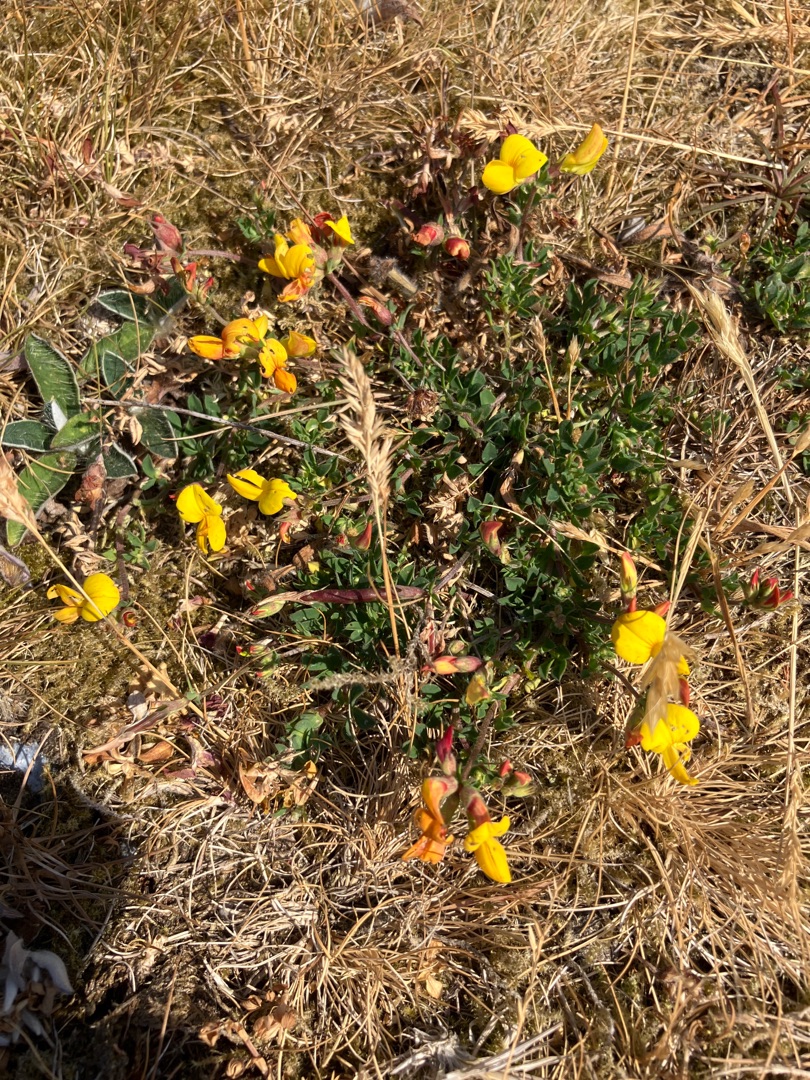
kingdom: Plantae
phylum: Tracheophyta
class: Magnoliopsida
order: Fabales
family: Fabaceae
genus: Lotus
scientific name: Lotus corniculatus
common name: Almindelig kællingetand
